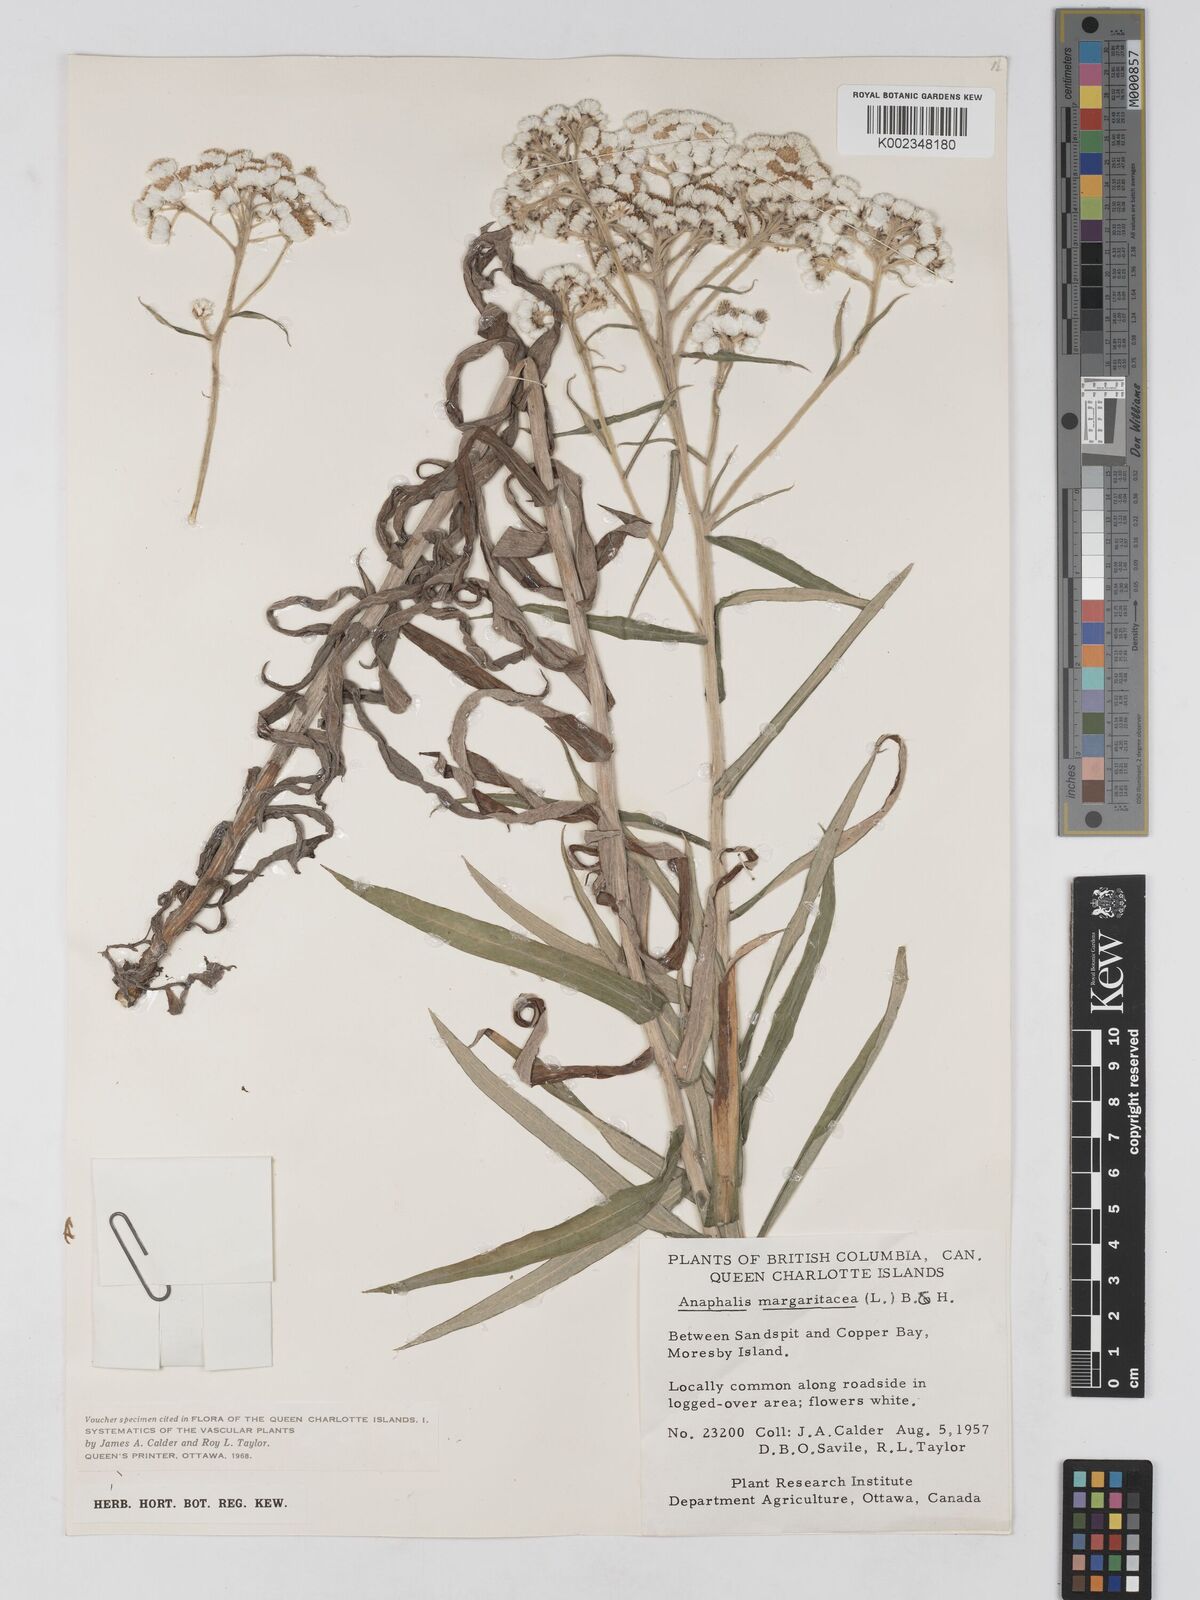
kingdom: Plantae
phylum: Tracheophyta
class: Magnoliopsida
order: Asterales
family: Asteraceae
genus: Anaphalis
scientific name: Anaphalis margaritacea
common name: Pearly everlasting
